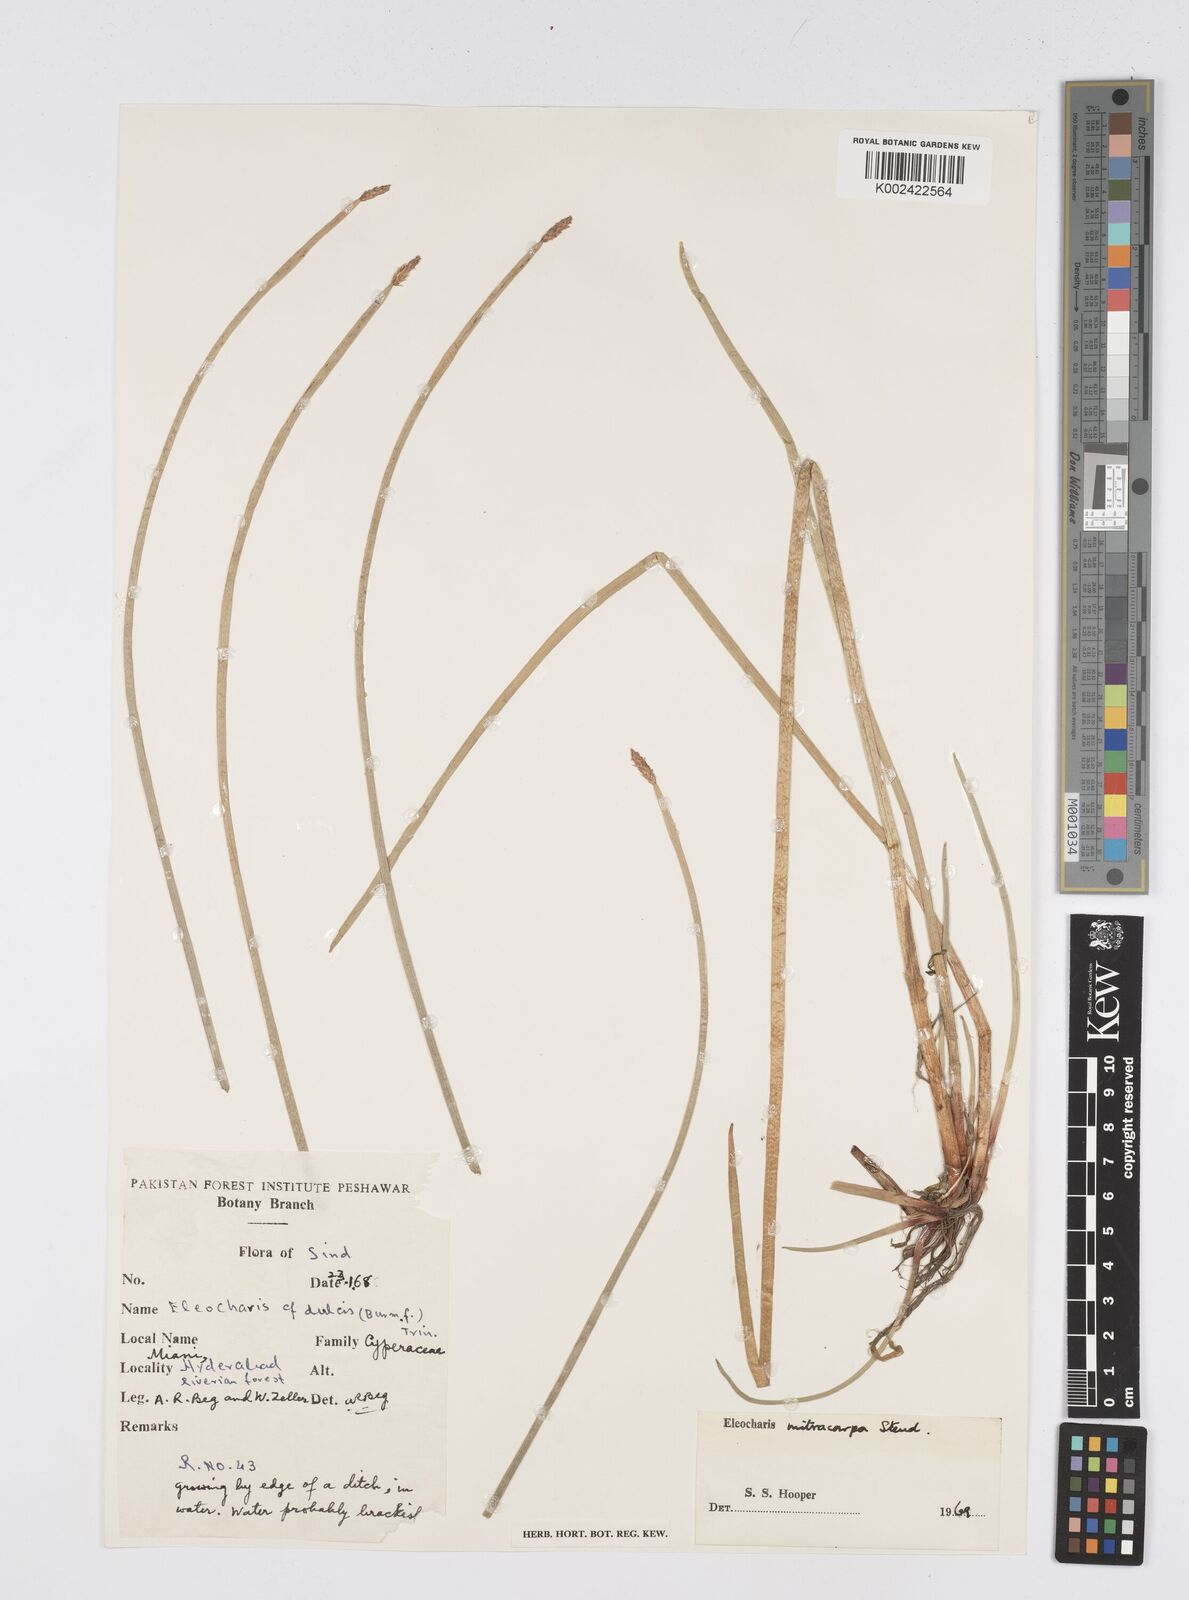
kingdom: Plantae
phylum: Tracheophyta
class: Liliopsida
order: Poales
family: Cyperaceae
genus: Eleocharis
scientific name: Eleocharis mitracarpa
